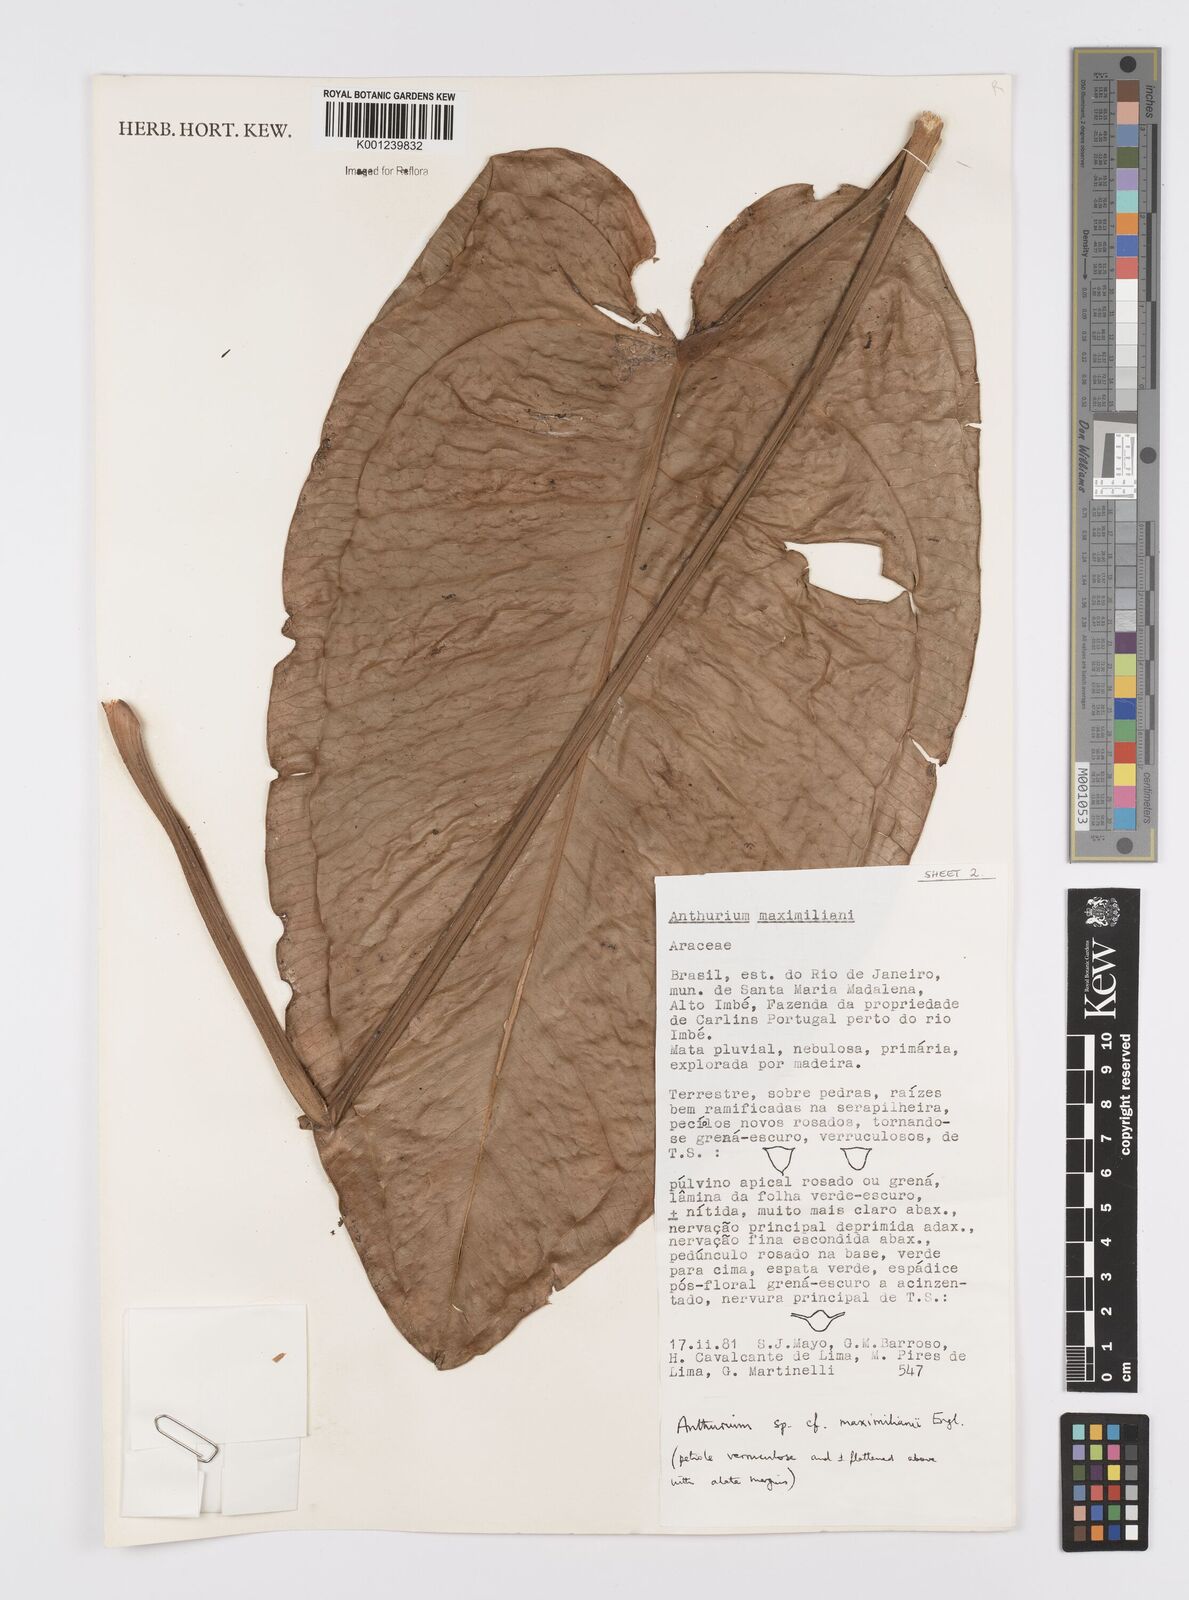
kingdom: Plantae
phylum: Tracheophyta
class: Liliopsida
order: Alismatales
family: Araceae
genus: Anthurium
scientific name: Anthurium
